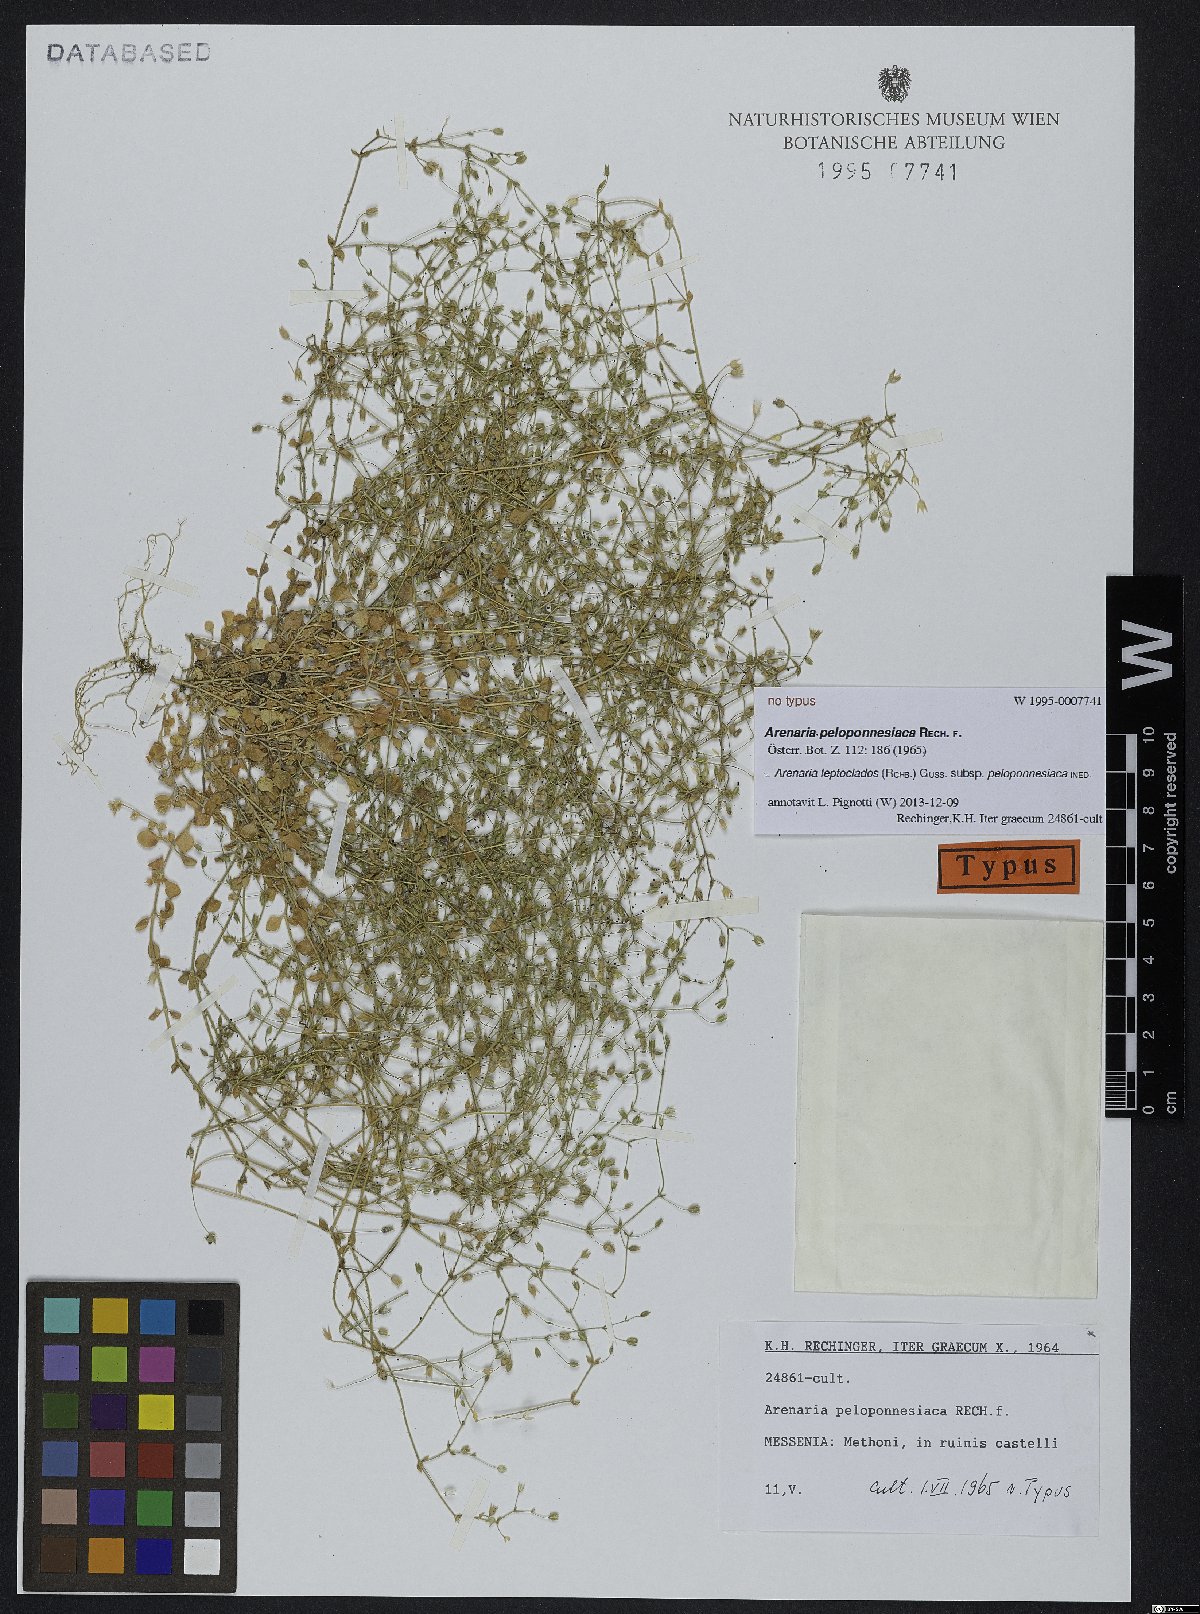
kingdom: Plantae
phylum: Tracheophyta
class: Magnoliopsida
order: Caryophyllales
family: Caryophyllaceae
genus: Arenaria
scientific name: Arenaria leptoclados
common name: Thyme-leaved sandwort
